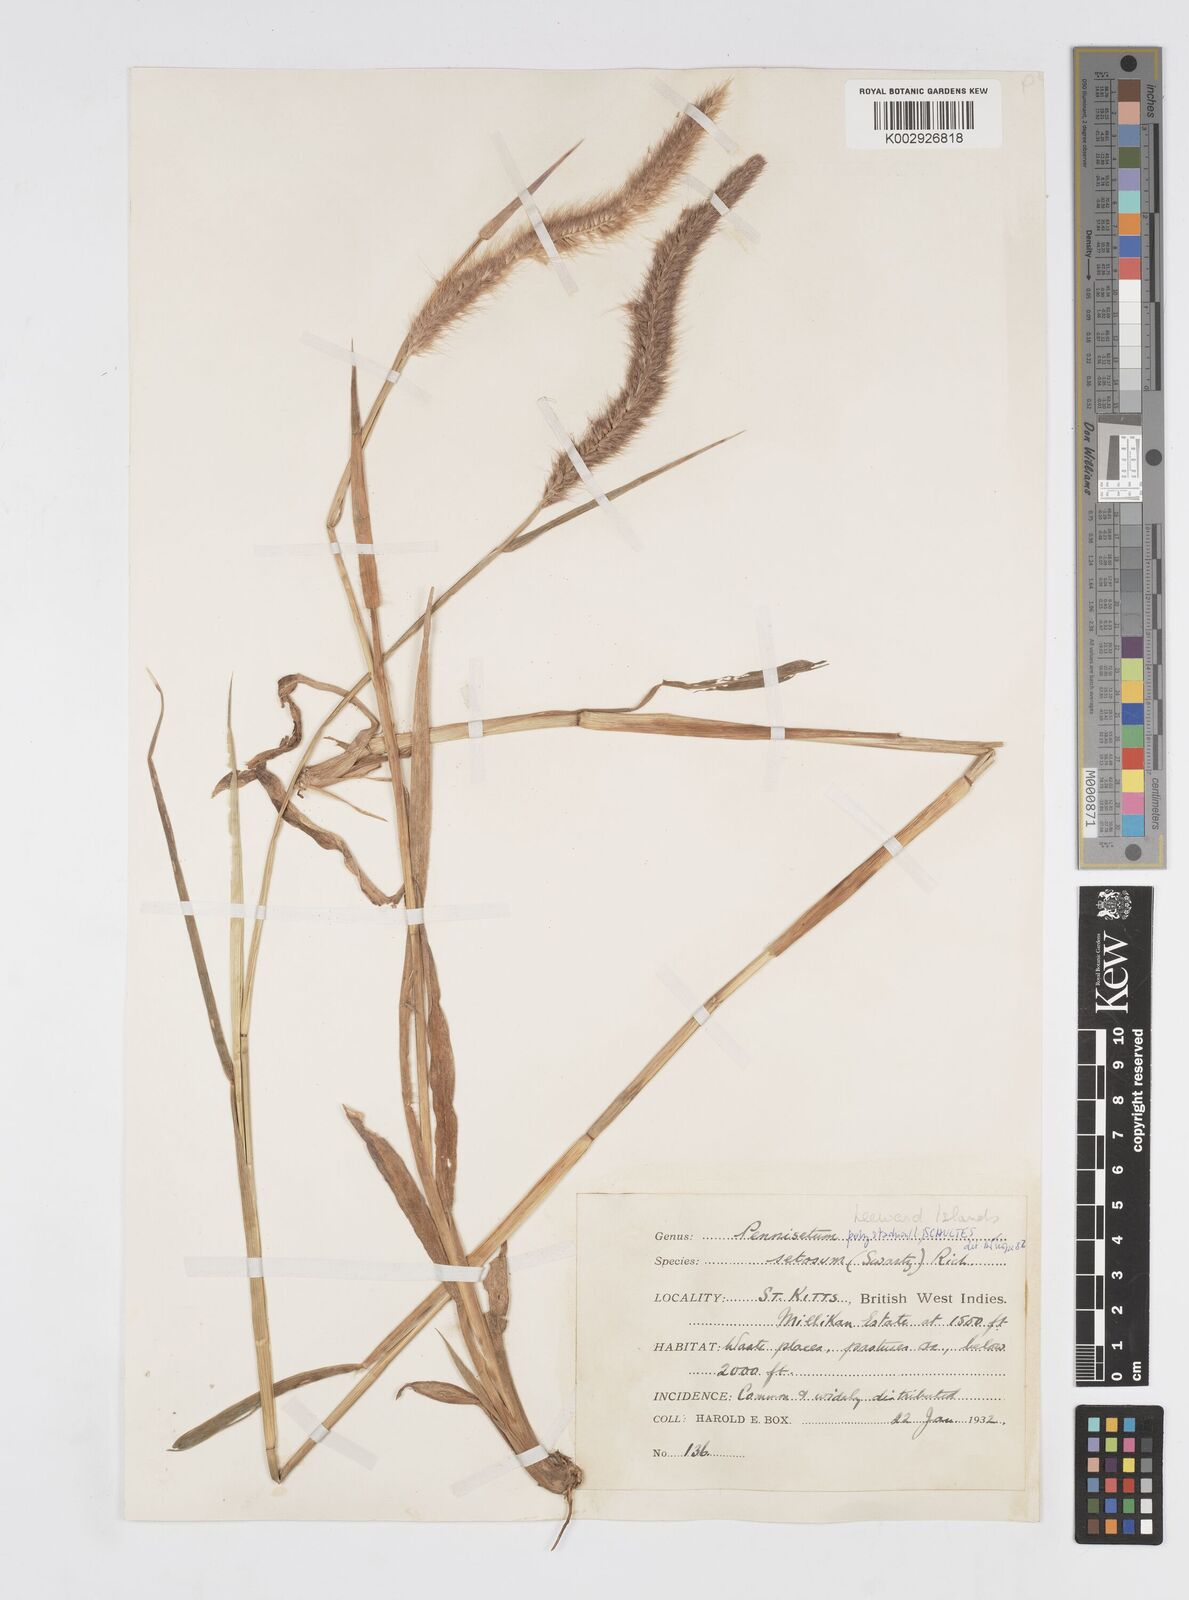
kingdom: Plantae
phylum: Tracheophyta
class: Liliopsida
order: Poales
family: Poaceae
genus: Cenchrus
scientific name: Cenchrus setosus
